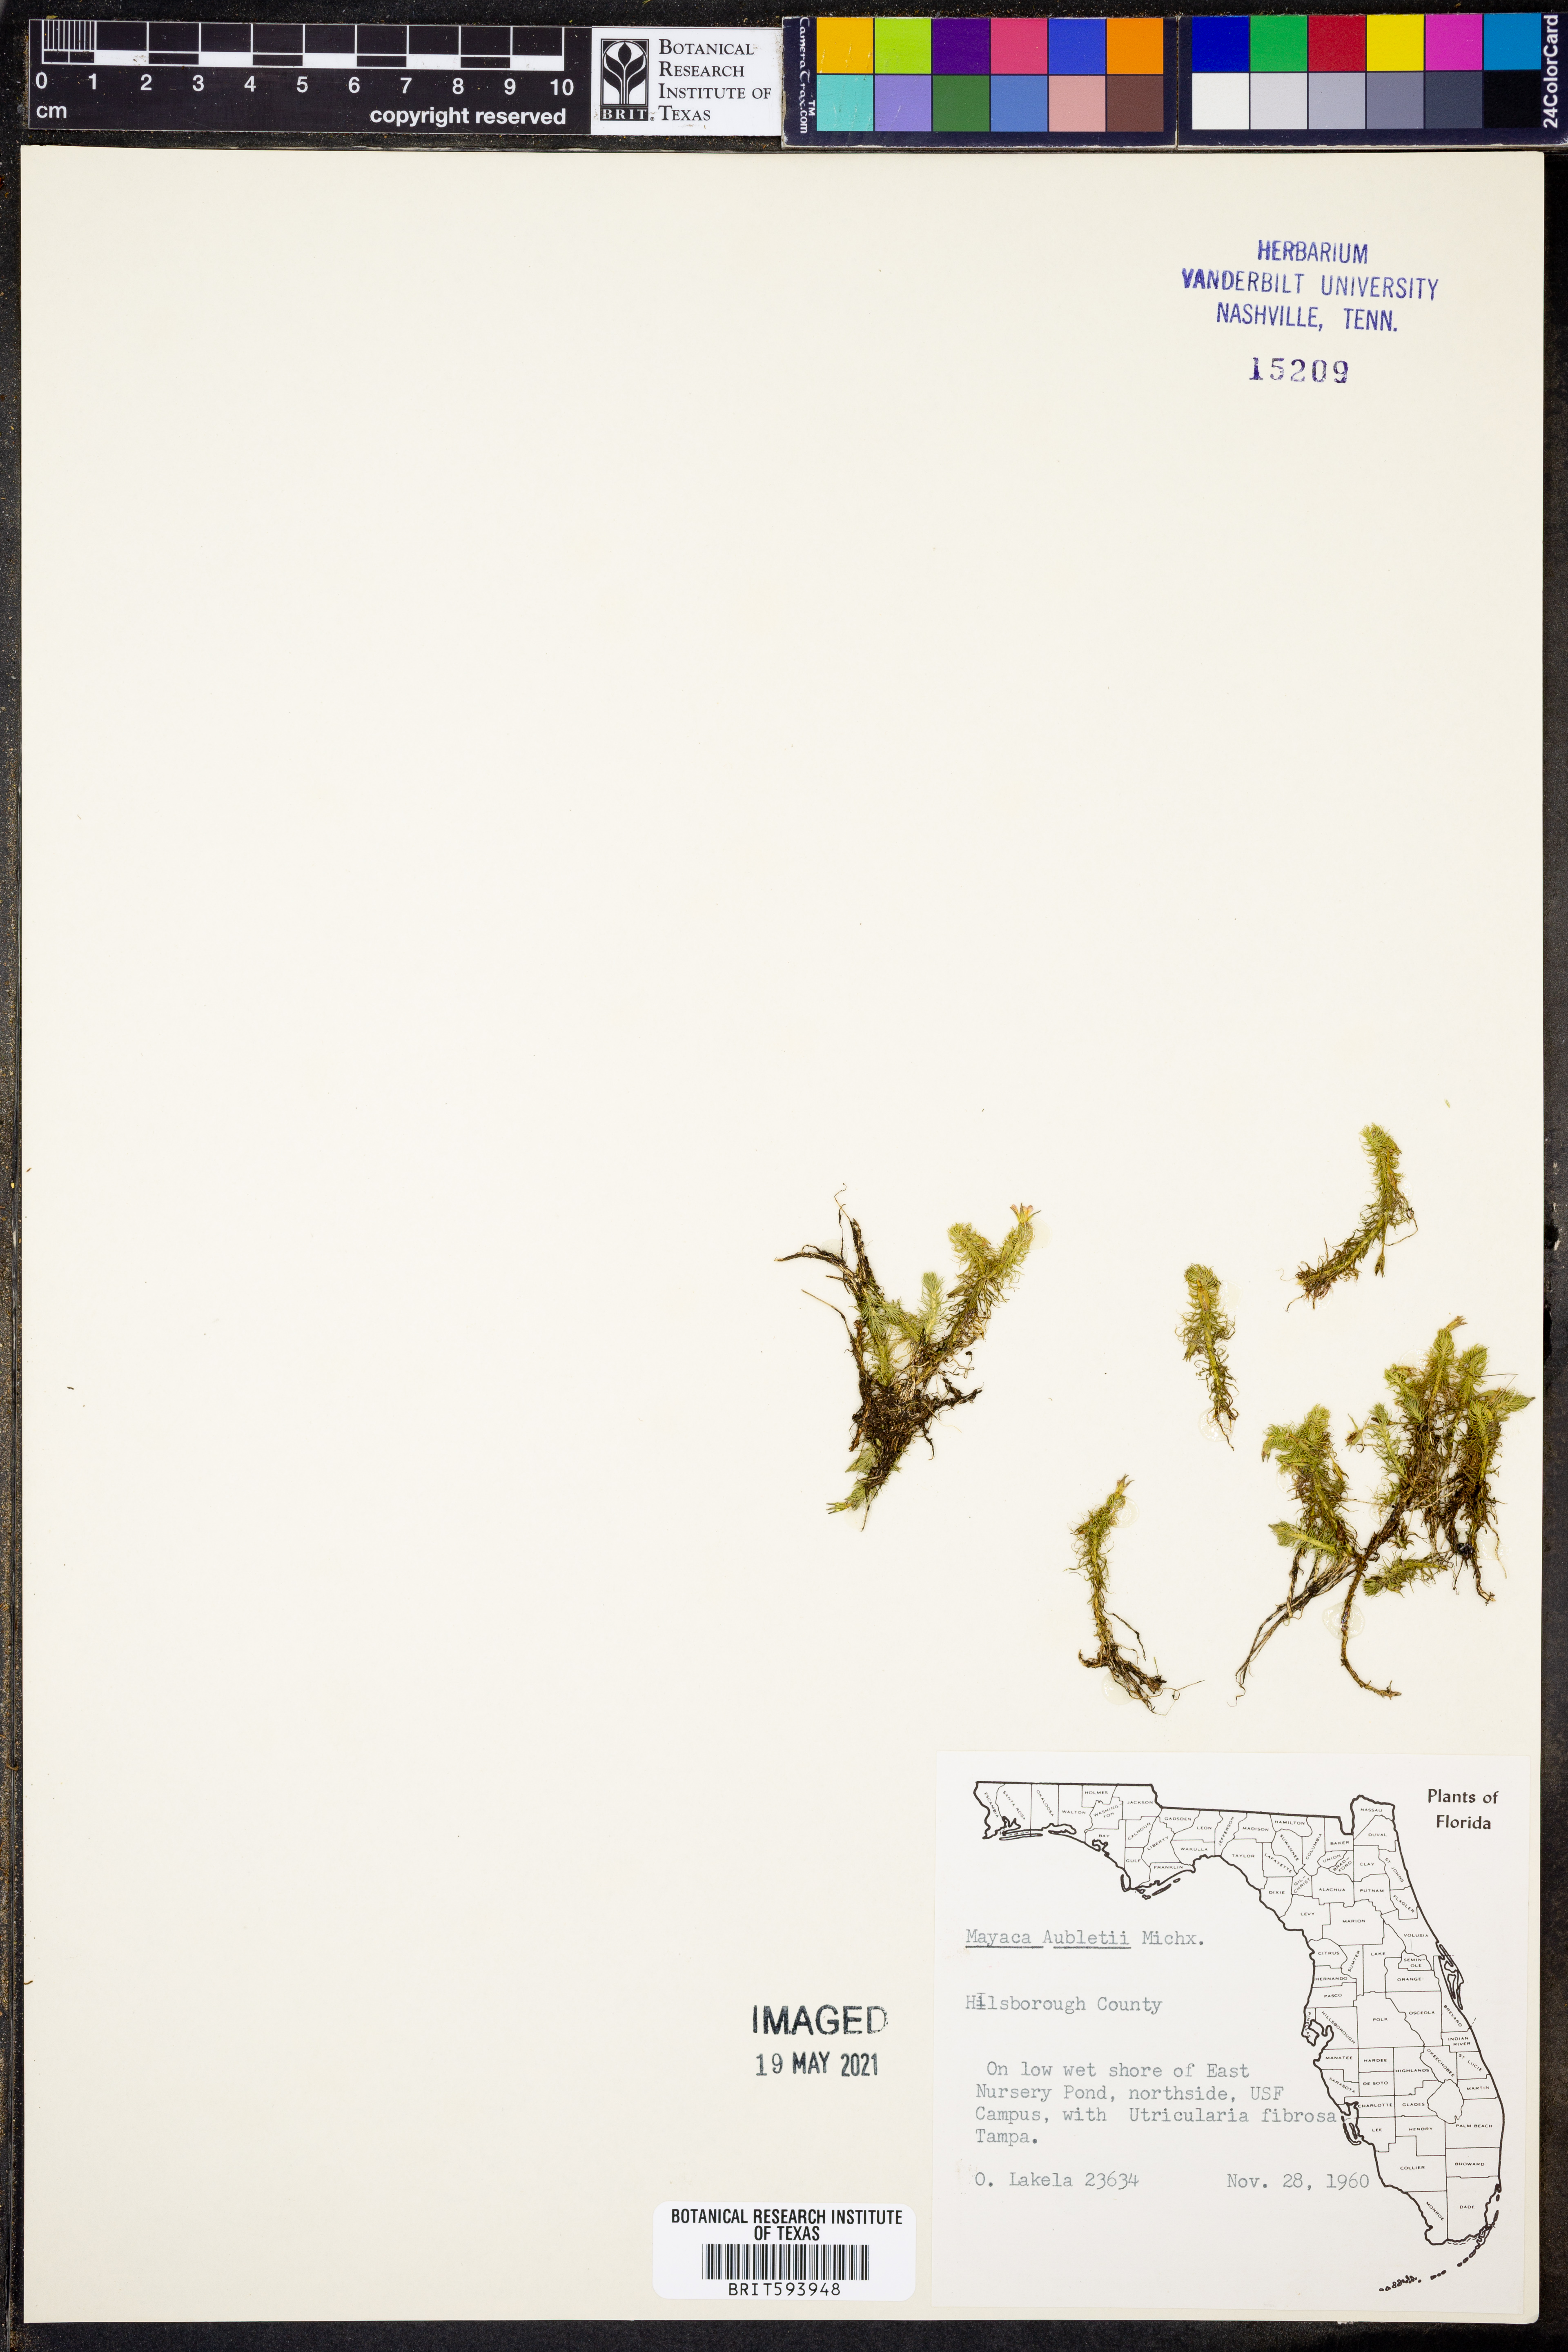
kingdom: Plantae
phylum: Tracheophyta
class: Liliopsida
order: Poales
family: Mayacaceae
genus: Mayaca
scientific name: Mayaca fluviatilis
